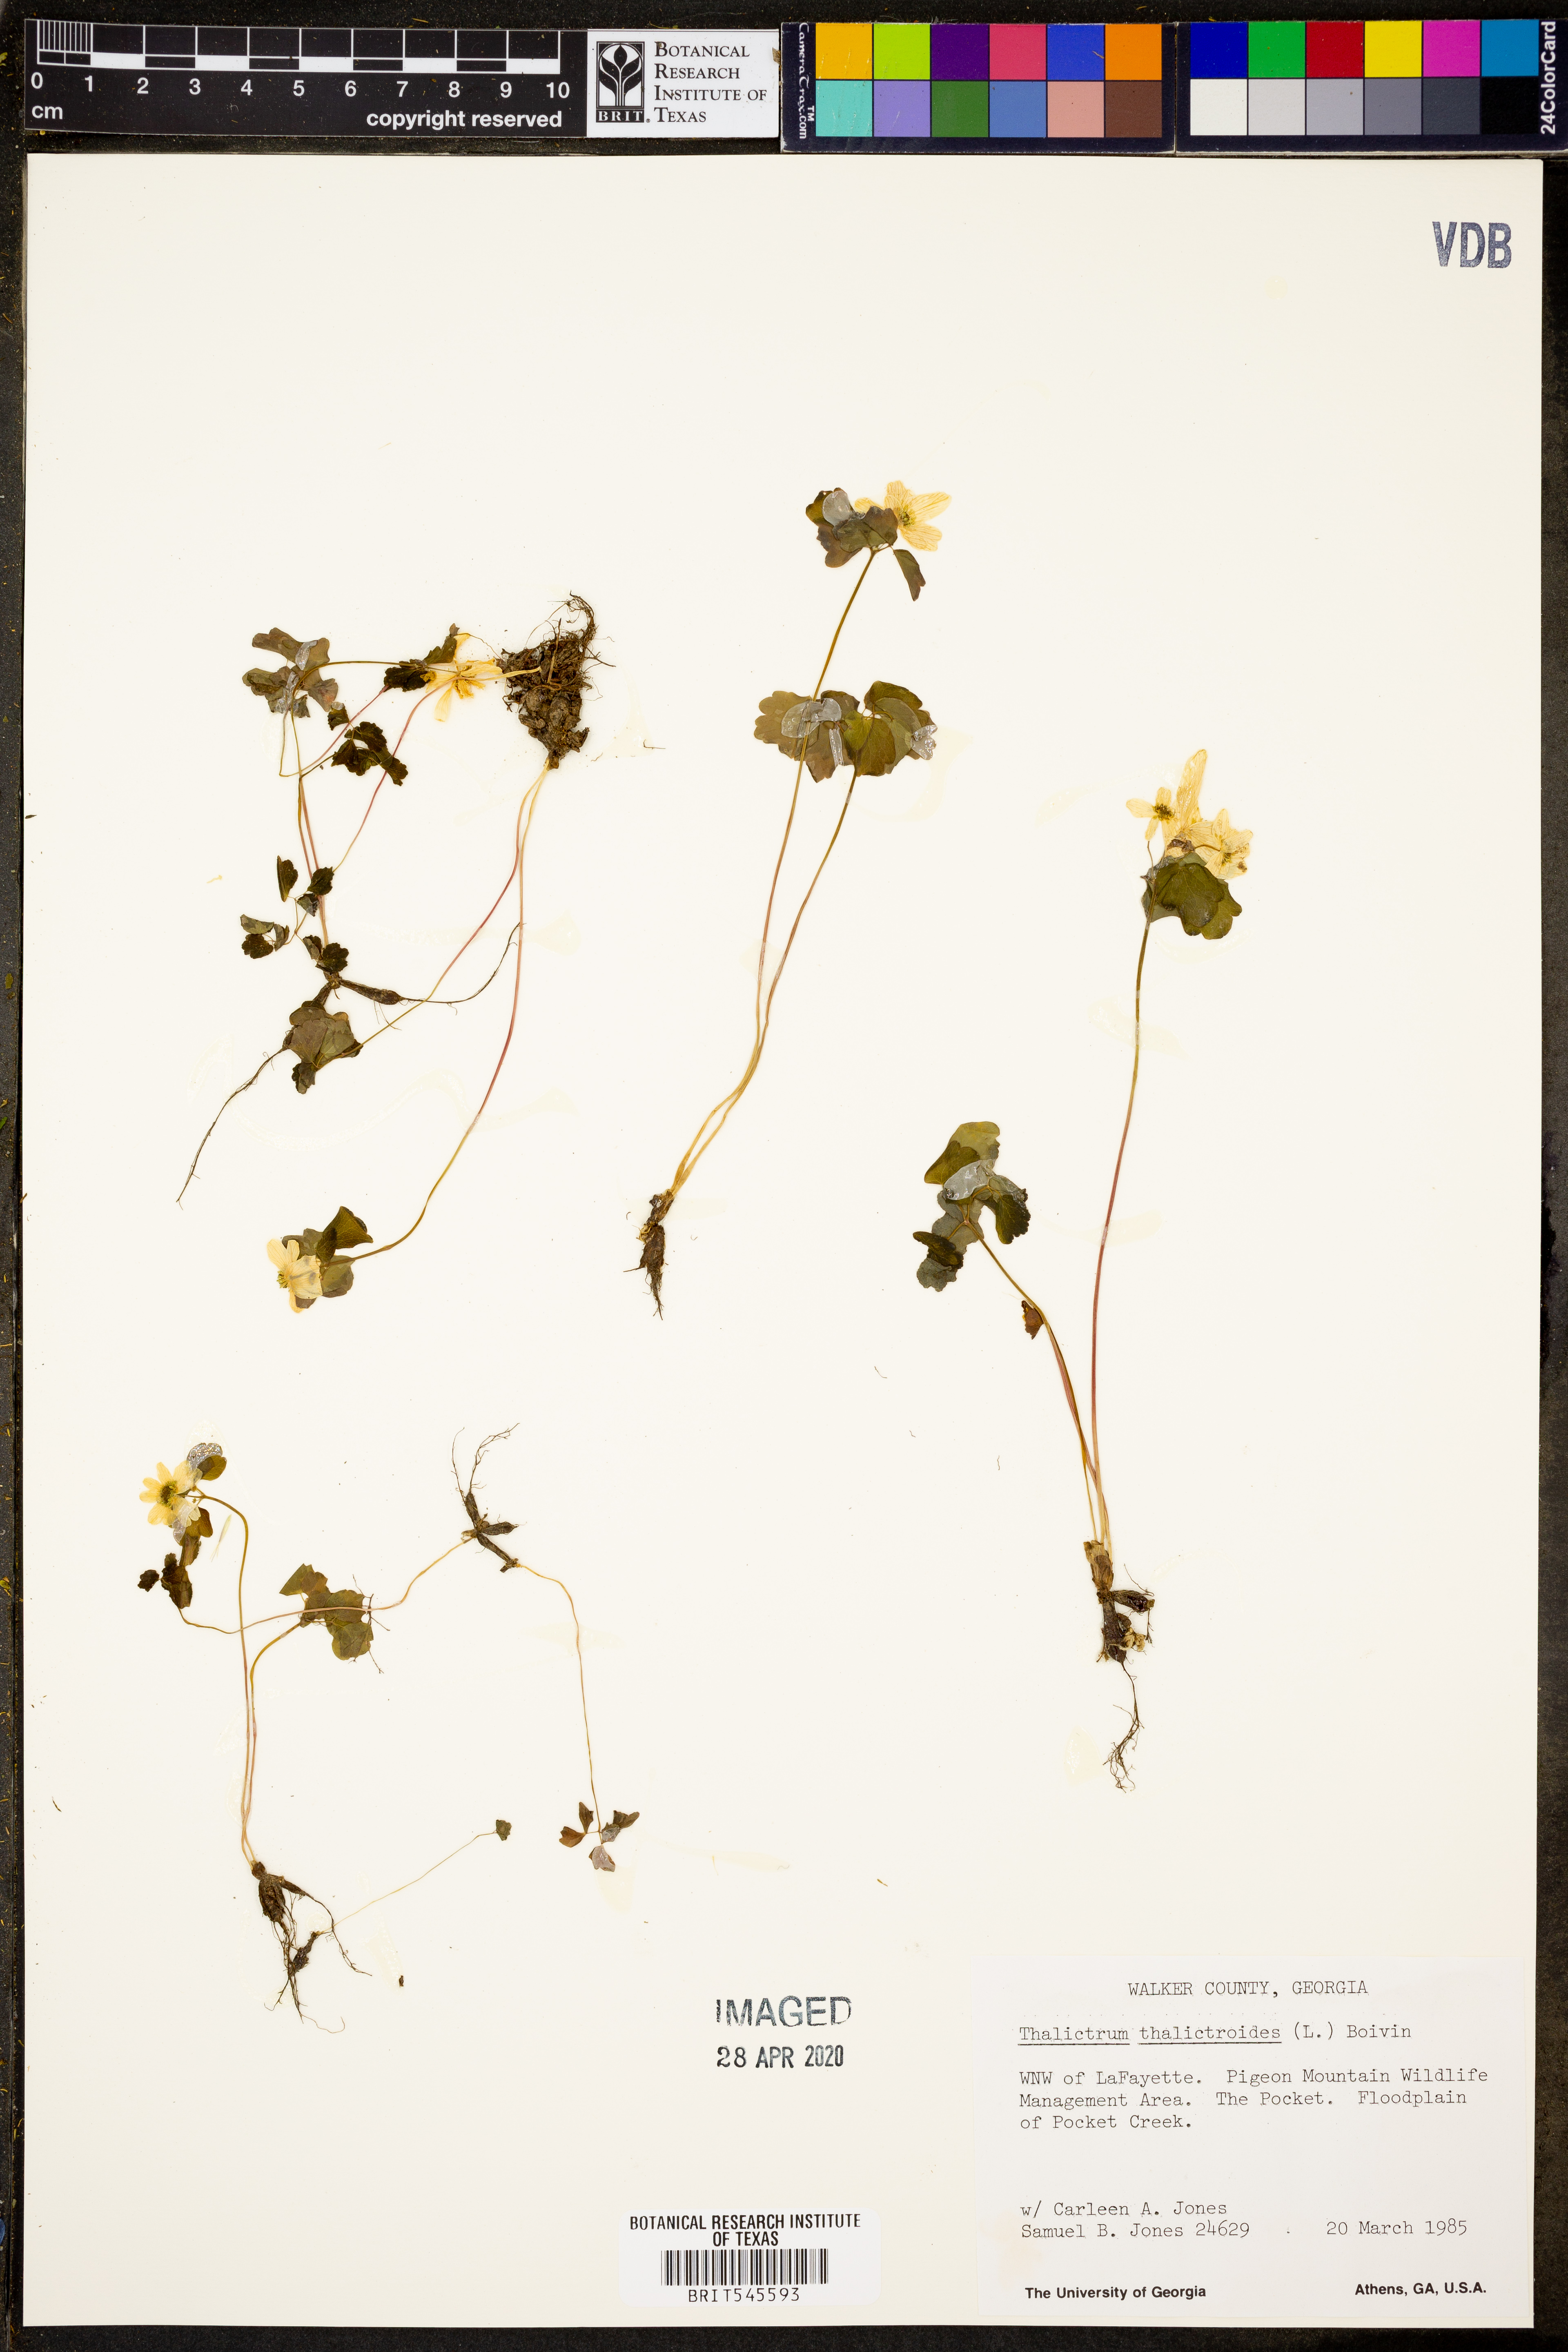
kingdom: Plantae
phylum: Tracheophyta
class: Magnoliopsida
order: Ranunculales
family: Ranunculaceae
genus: Thalictrum
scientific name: Thalictrum thalictroides
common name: Rue-anemone
